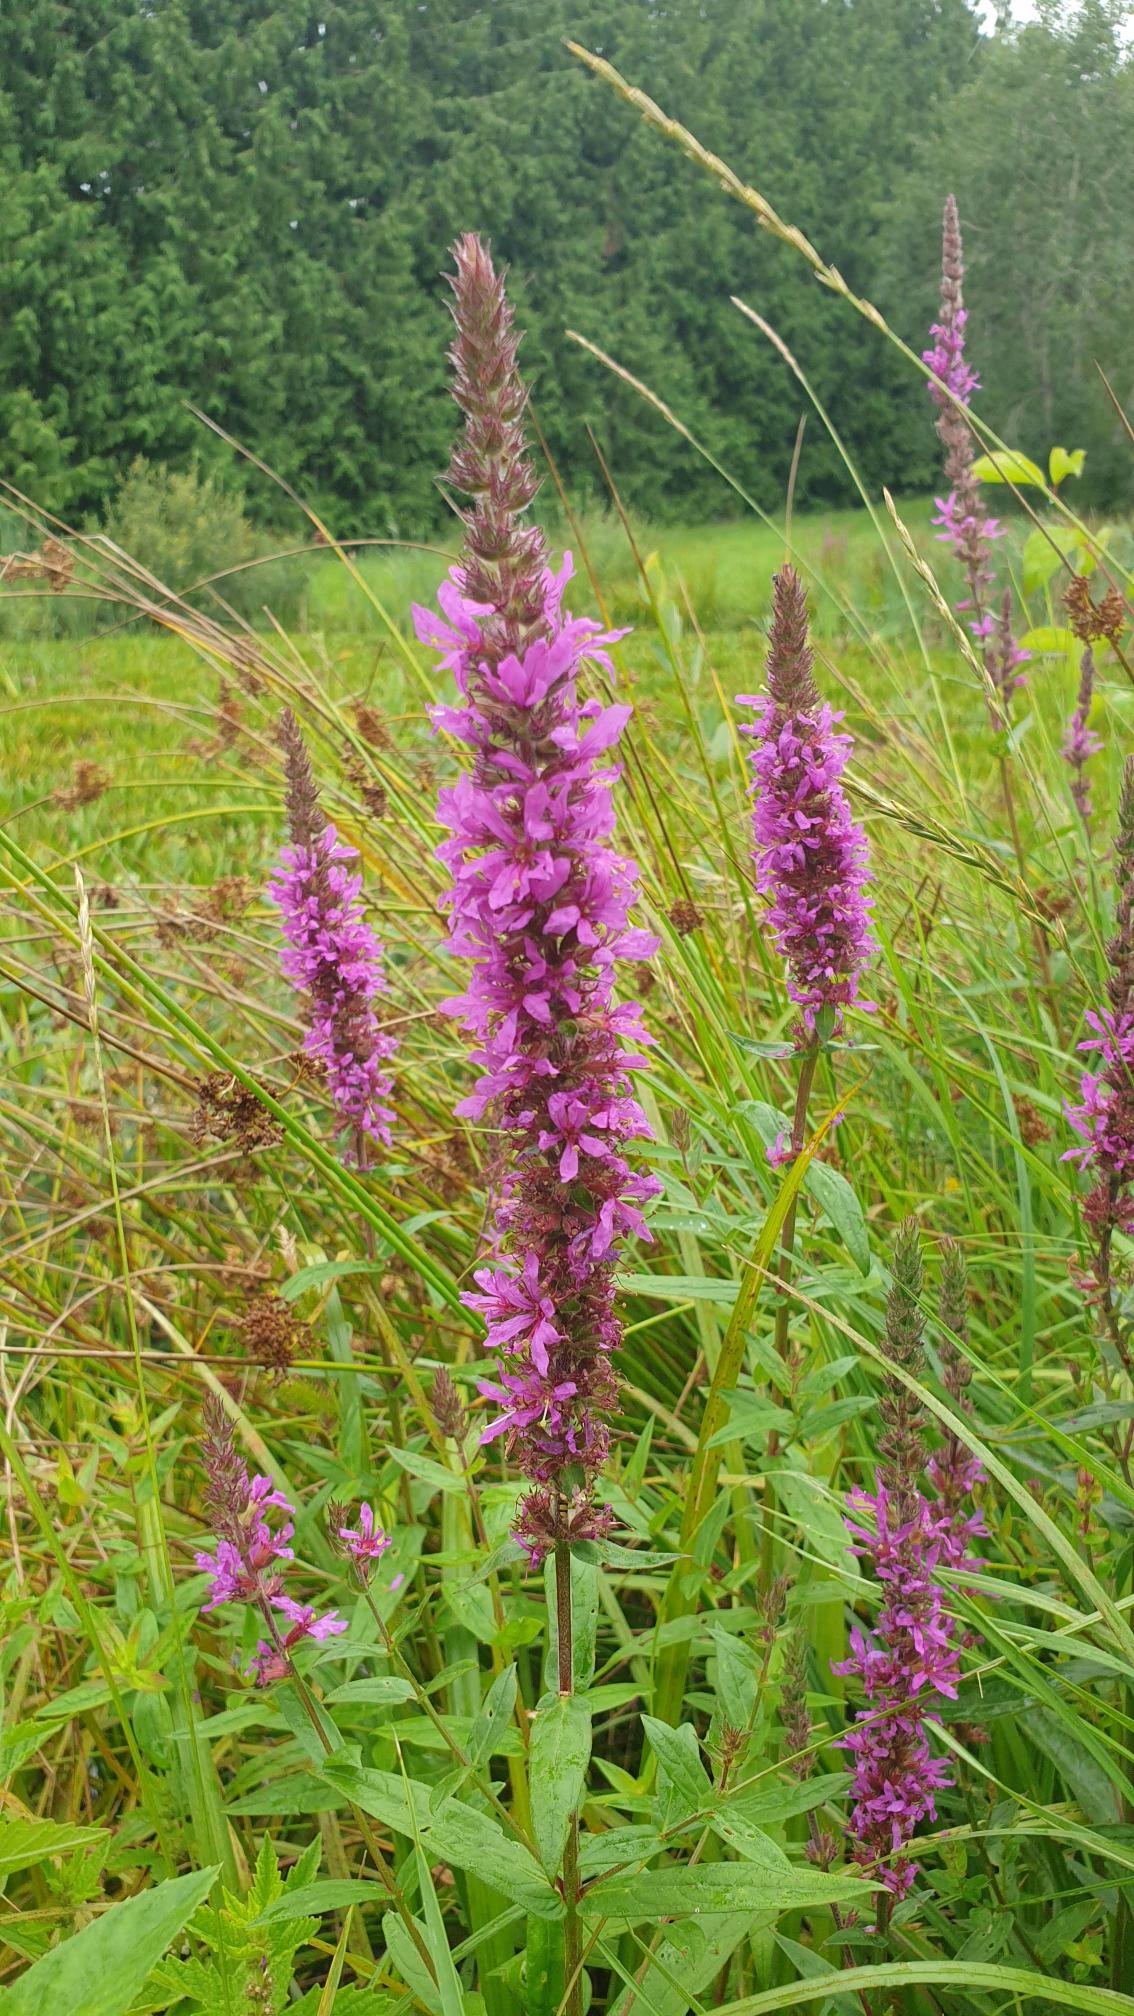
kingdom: Plantae
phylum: Tracheophyta
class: Magnoliopsida
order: Myrtales
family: Lythraceae
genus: Lythrum
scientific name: Lythrum salicaria
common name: Kattehale
